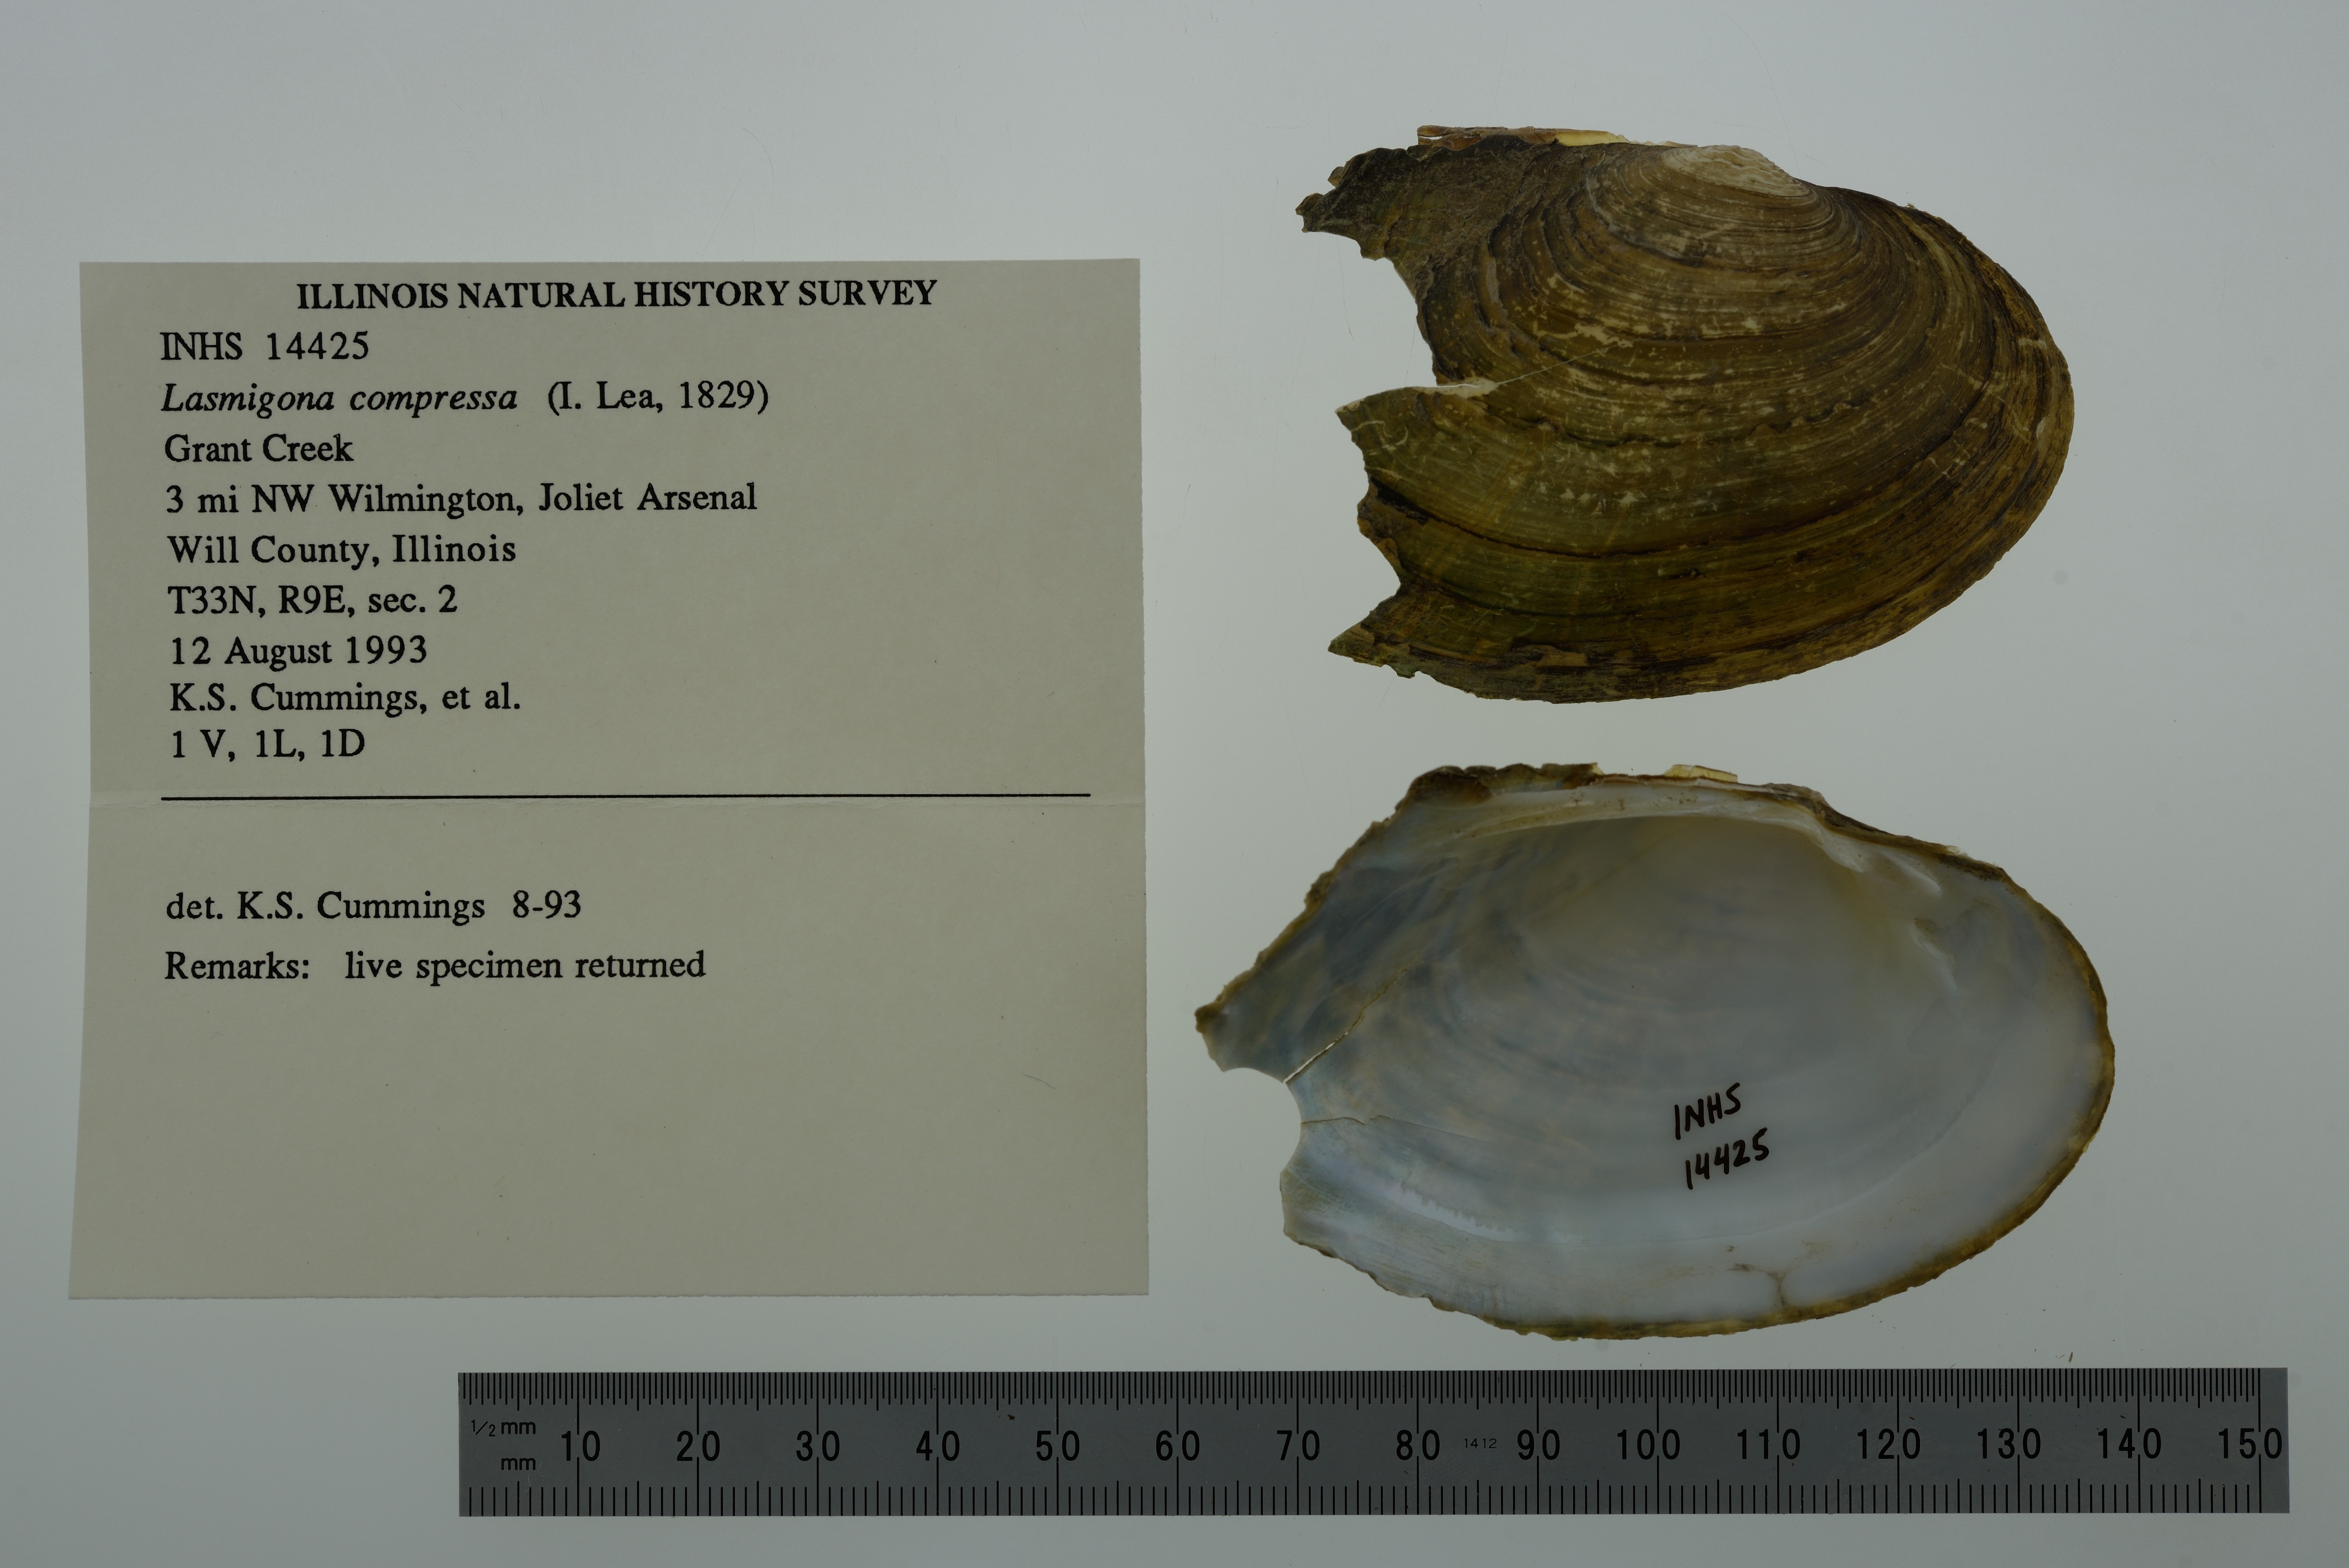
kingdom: Animalia
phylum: Mollusca
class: Bivalvia
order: Unionida
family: Unionidae
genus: Lasmigona
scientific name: Lasmigona compressa
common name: Creek heelsplitter
